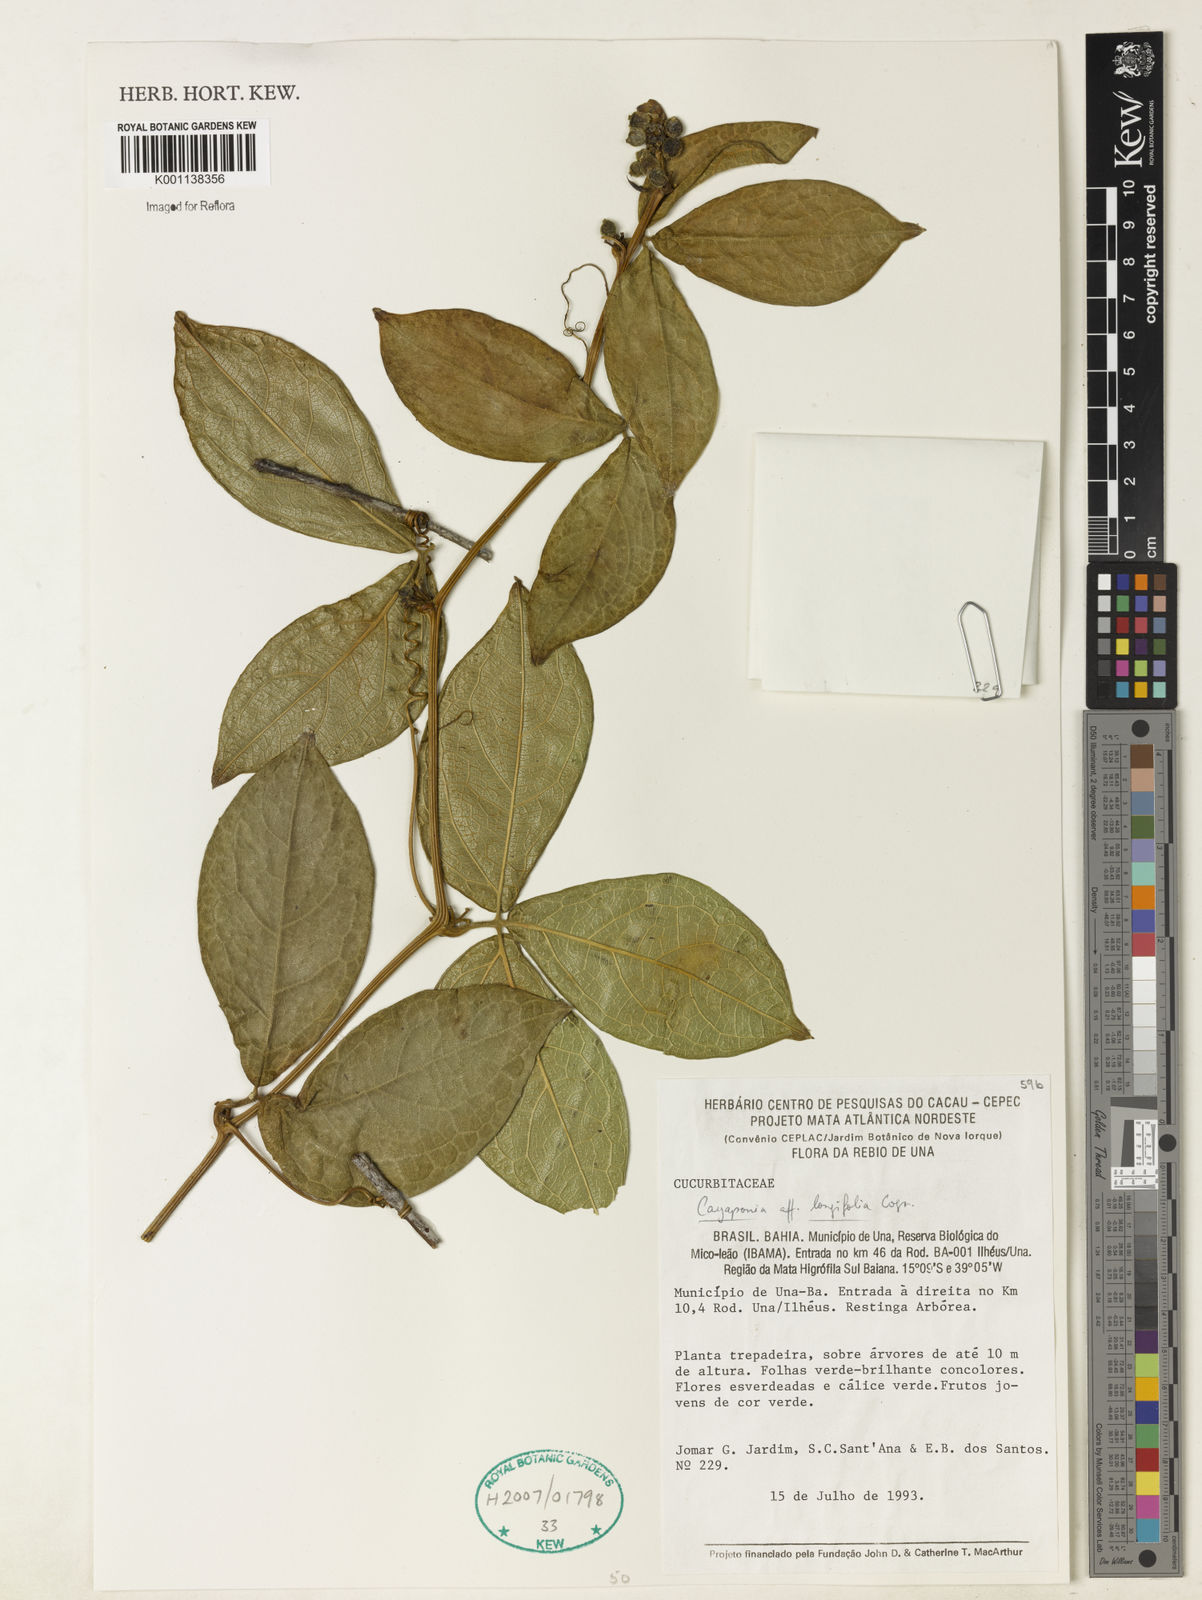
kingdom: Plantae
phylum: Tracheophyta
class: Magnoliopsida
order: Cucurbitales
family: Cucurbitaceae
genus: Cayaponia
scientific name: Cayaponia longifolia
